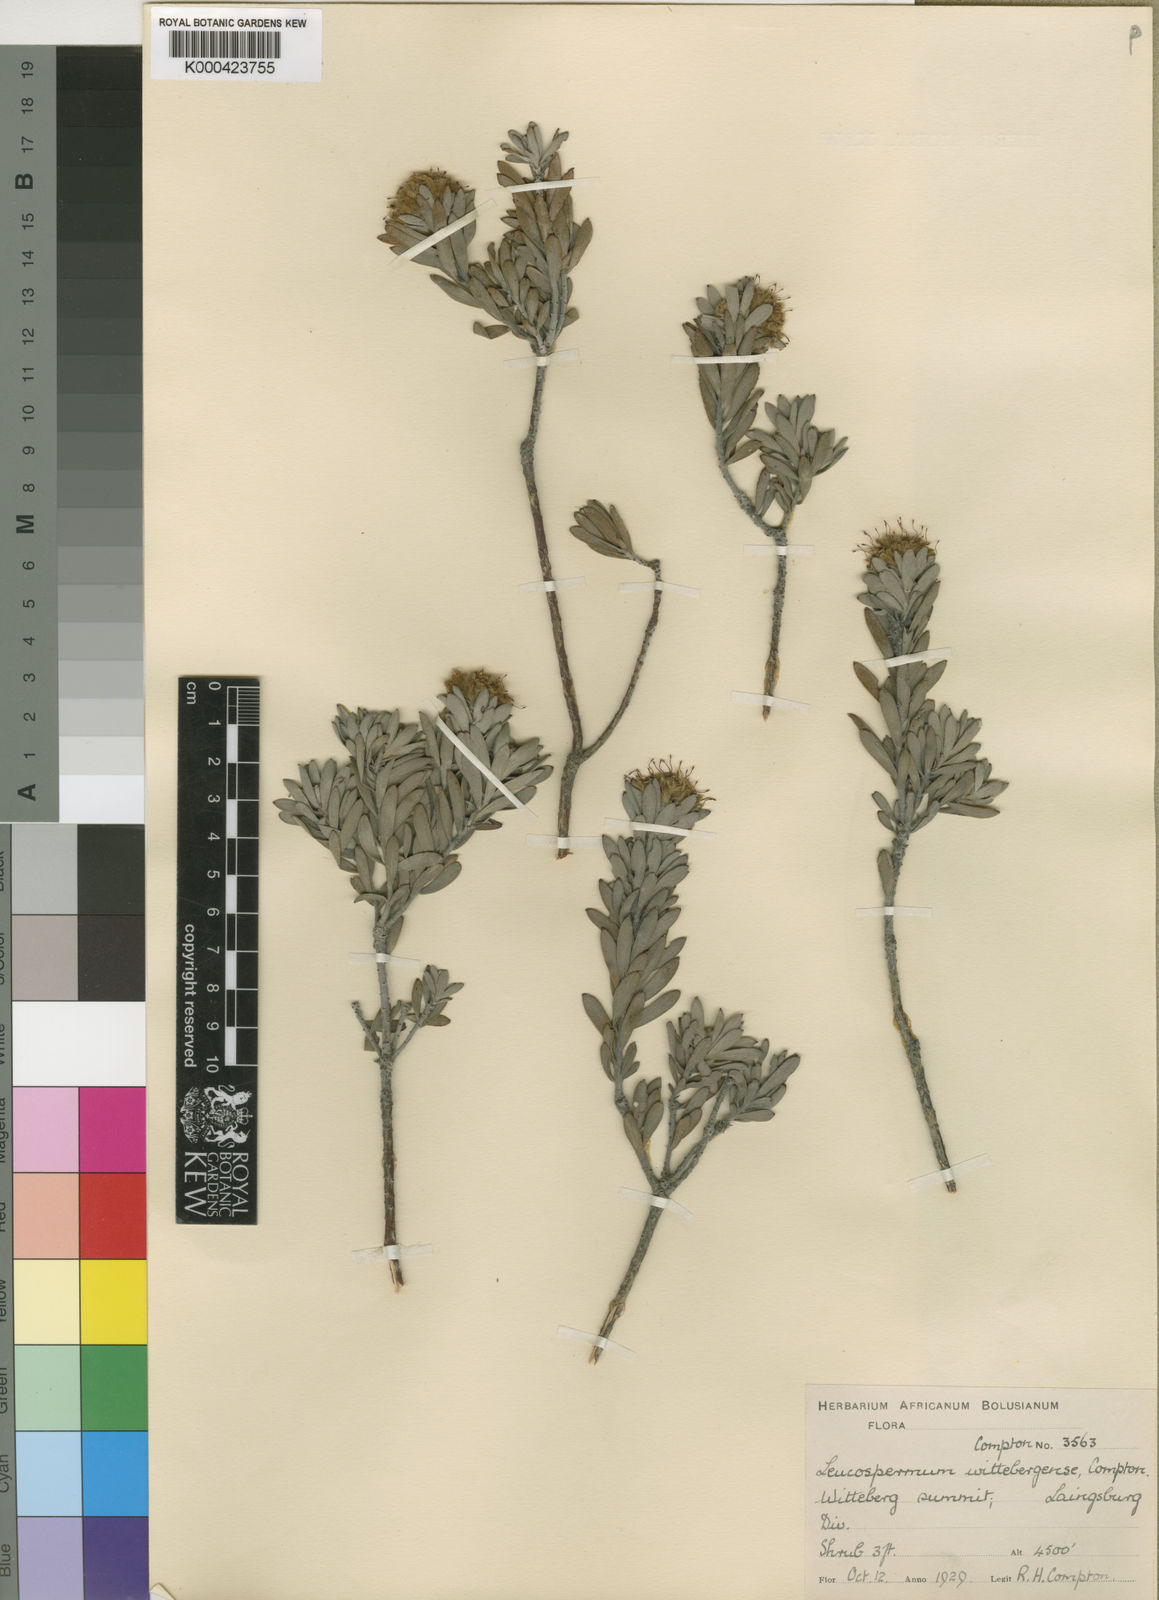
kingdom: Plantae
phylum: Tracheophyta
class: Magnoliopsida
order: Proteales
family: Proteaceae
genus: Leucospermum
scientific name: Leucospermum wittebergense
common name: Swartberg pincushion
